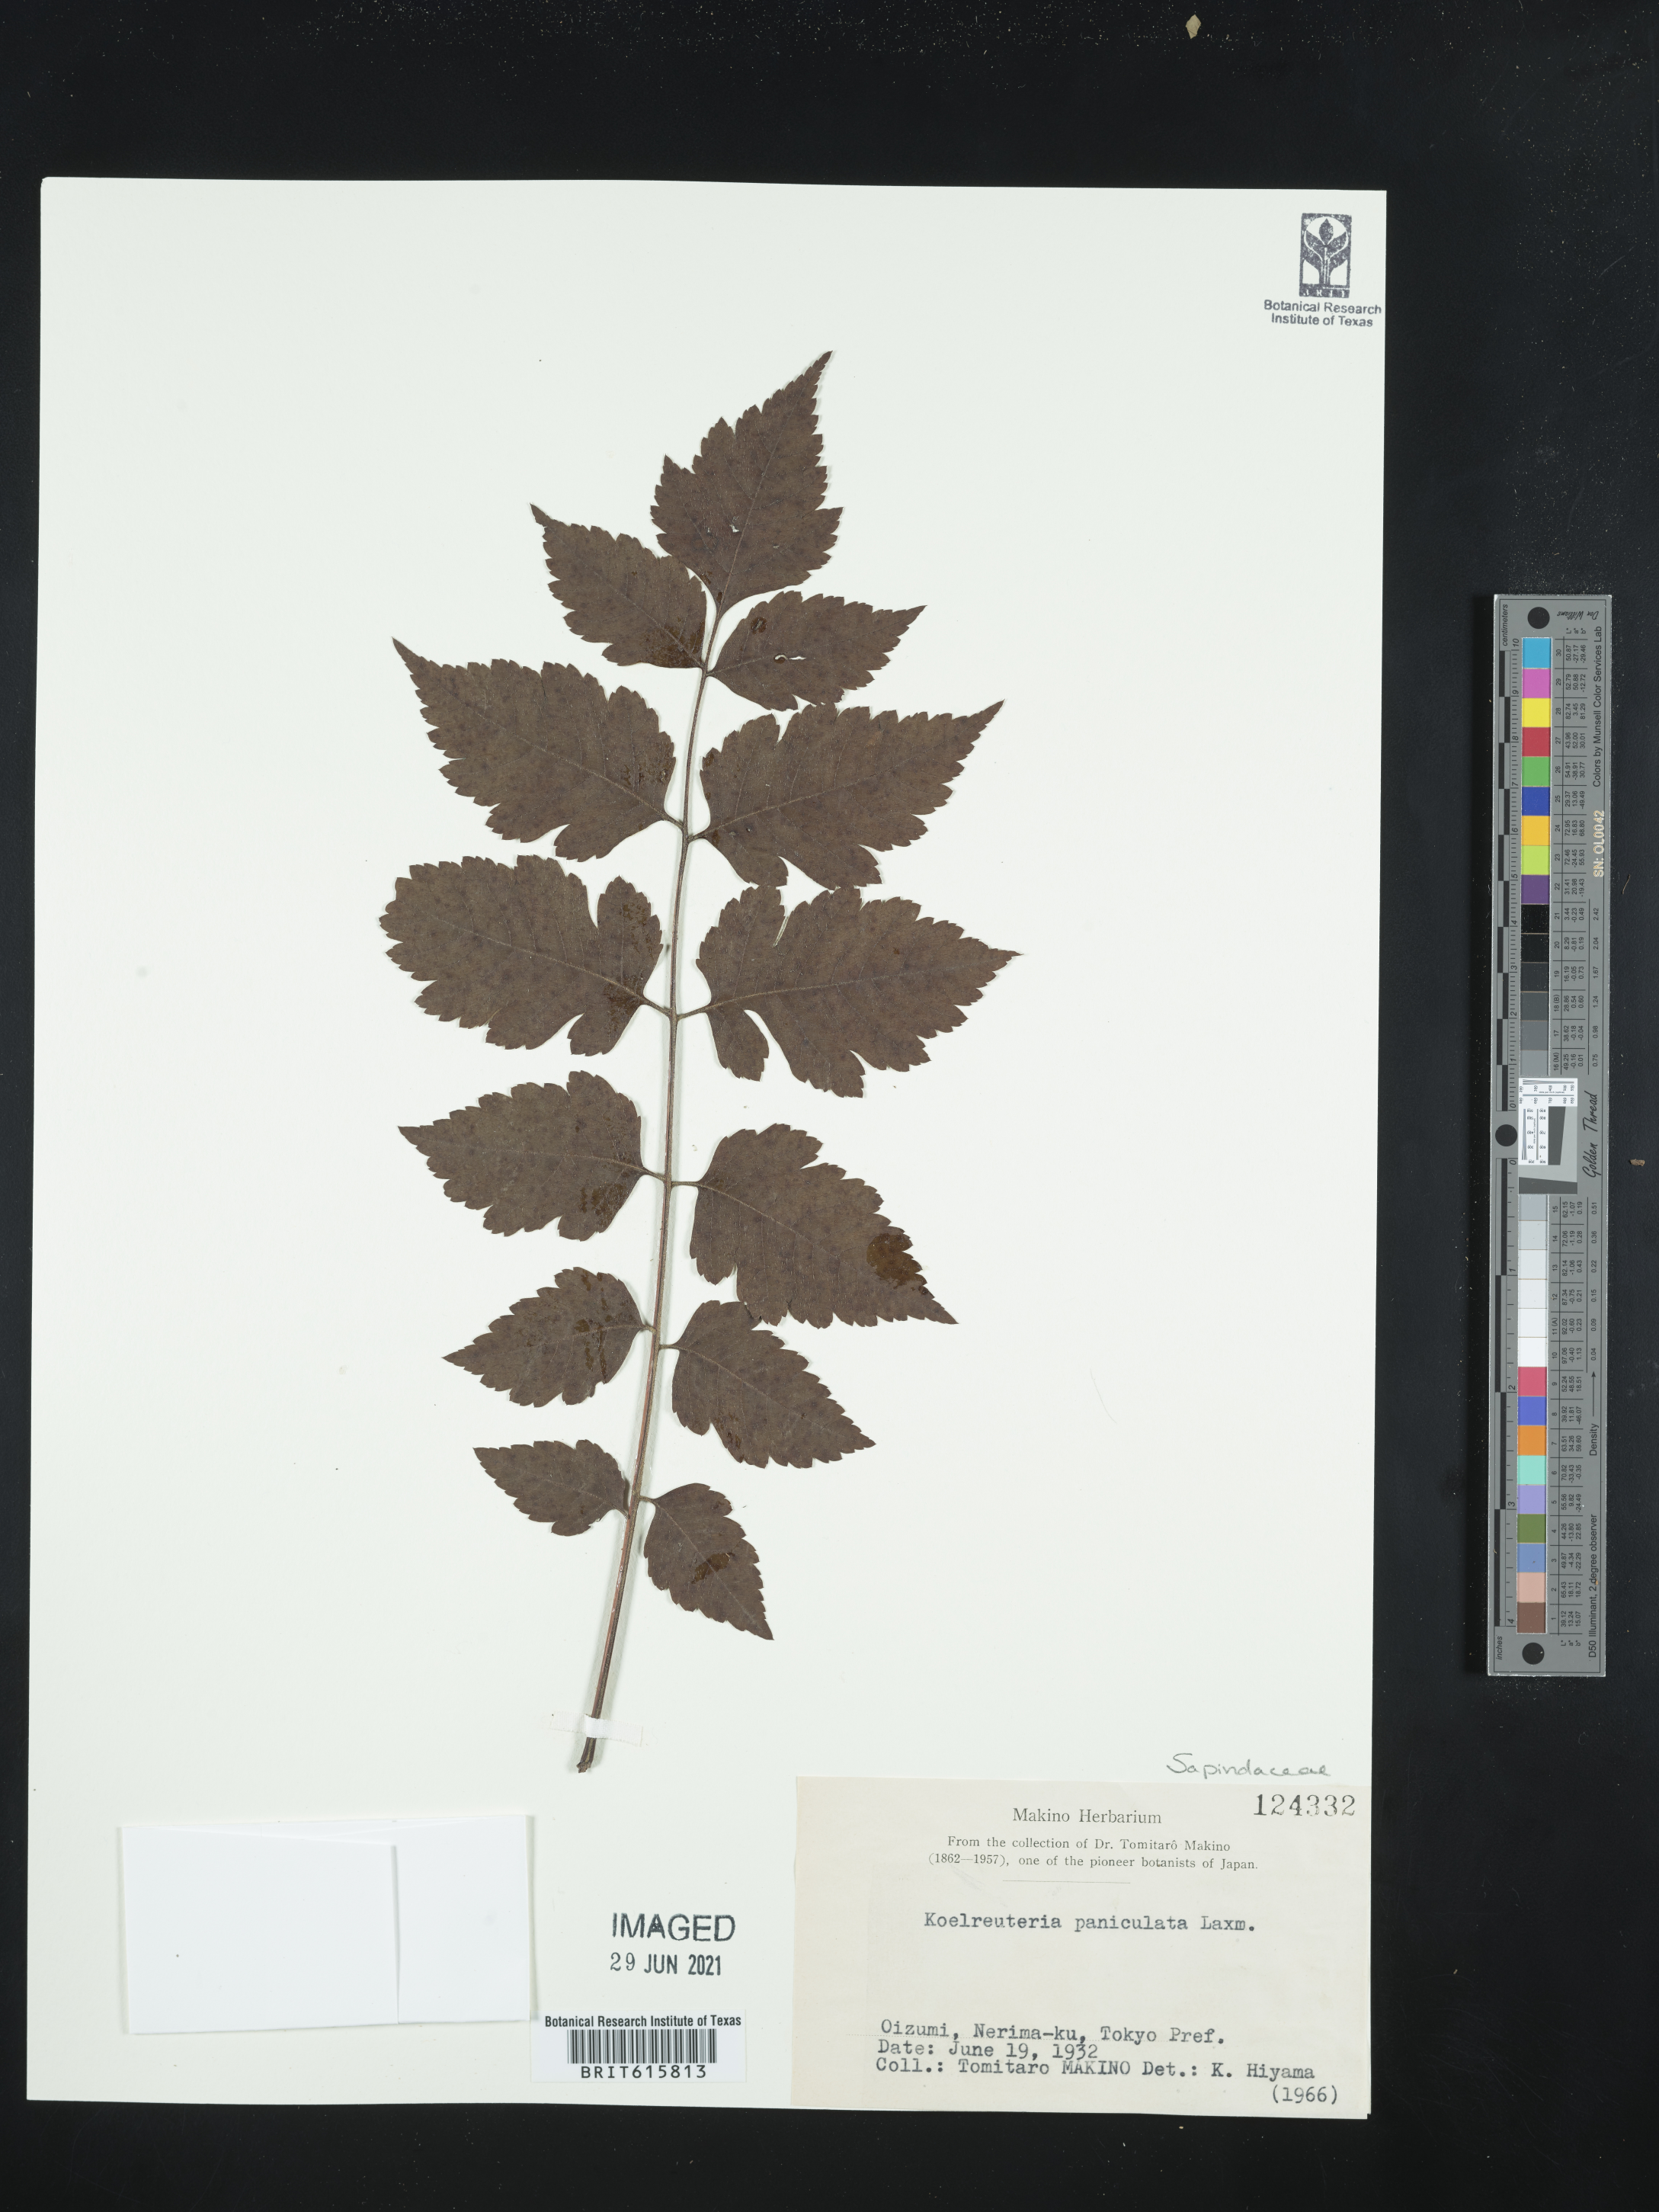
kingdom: Plantae
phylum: Tracheophyta
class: Magnoliopsida
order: Sapindales
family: Sapindaceae
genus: Koelreuteria
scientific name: Koelreuteria paniculata
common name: Pride-of-india
